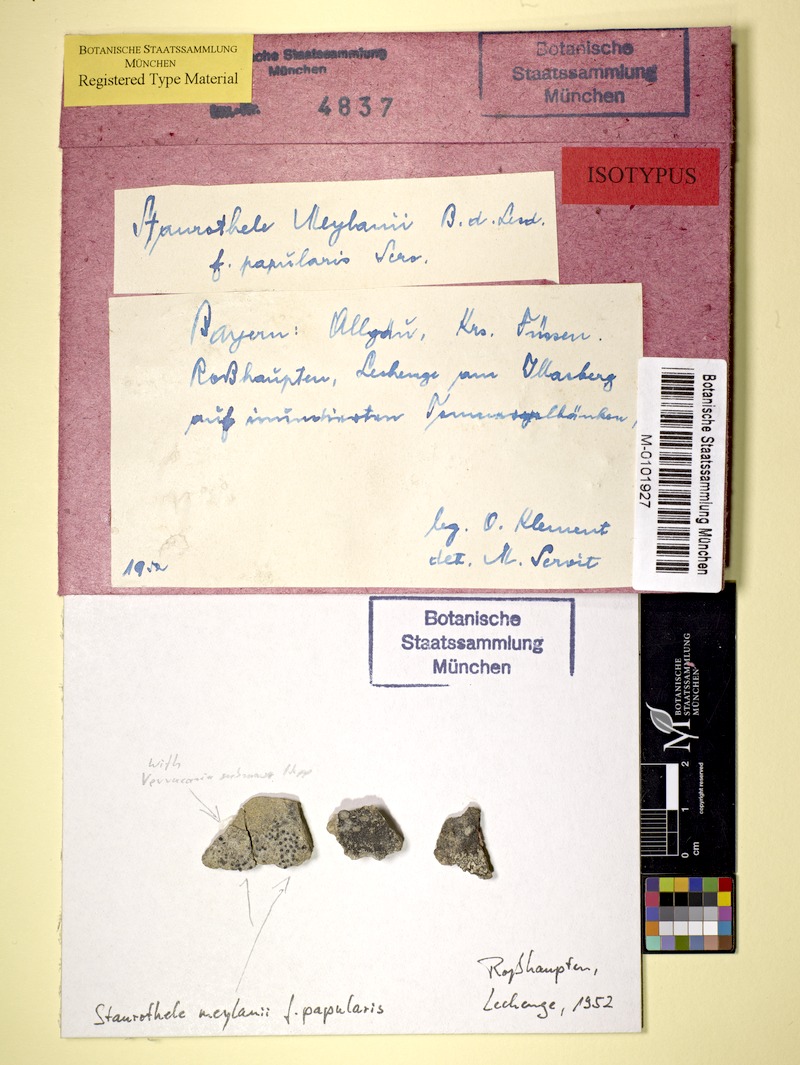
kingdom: Fungi
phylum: Ascomycota
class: Eurotiomycetes
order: Verrucariales
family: Verrucariaceae
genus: Staurothele
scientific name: Staurothele solvens
